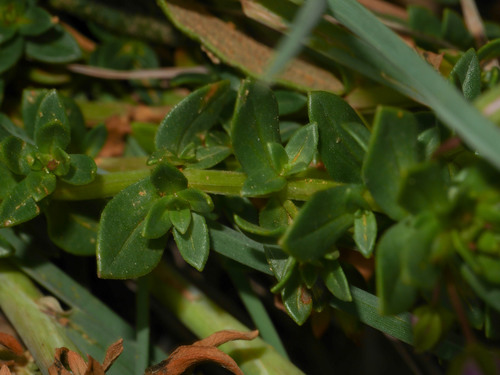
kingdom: Plantae
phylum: Tracheophyta
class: Magnoliopsida
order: Ericales
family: Primulaceae
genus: Lysimachia
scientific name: Lysimachia monelli
